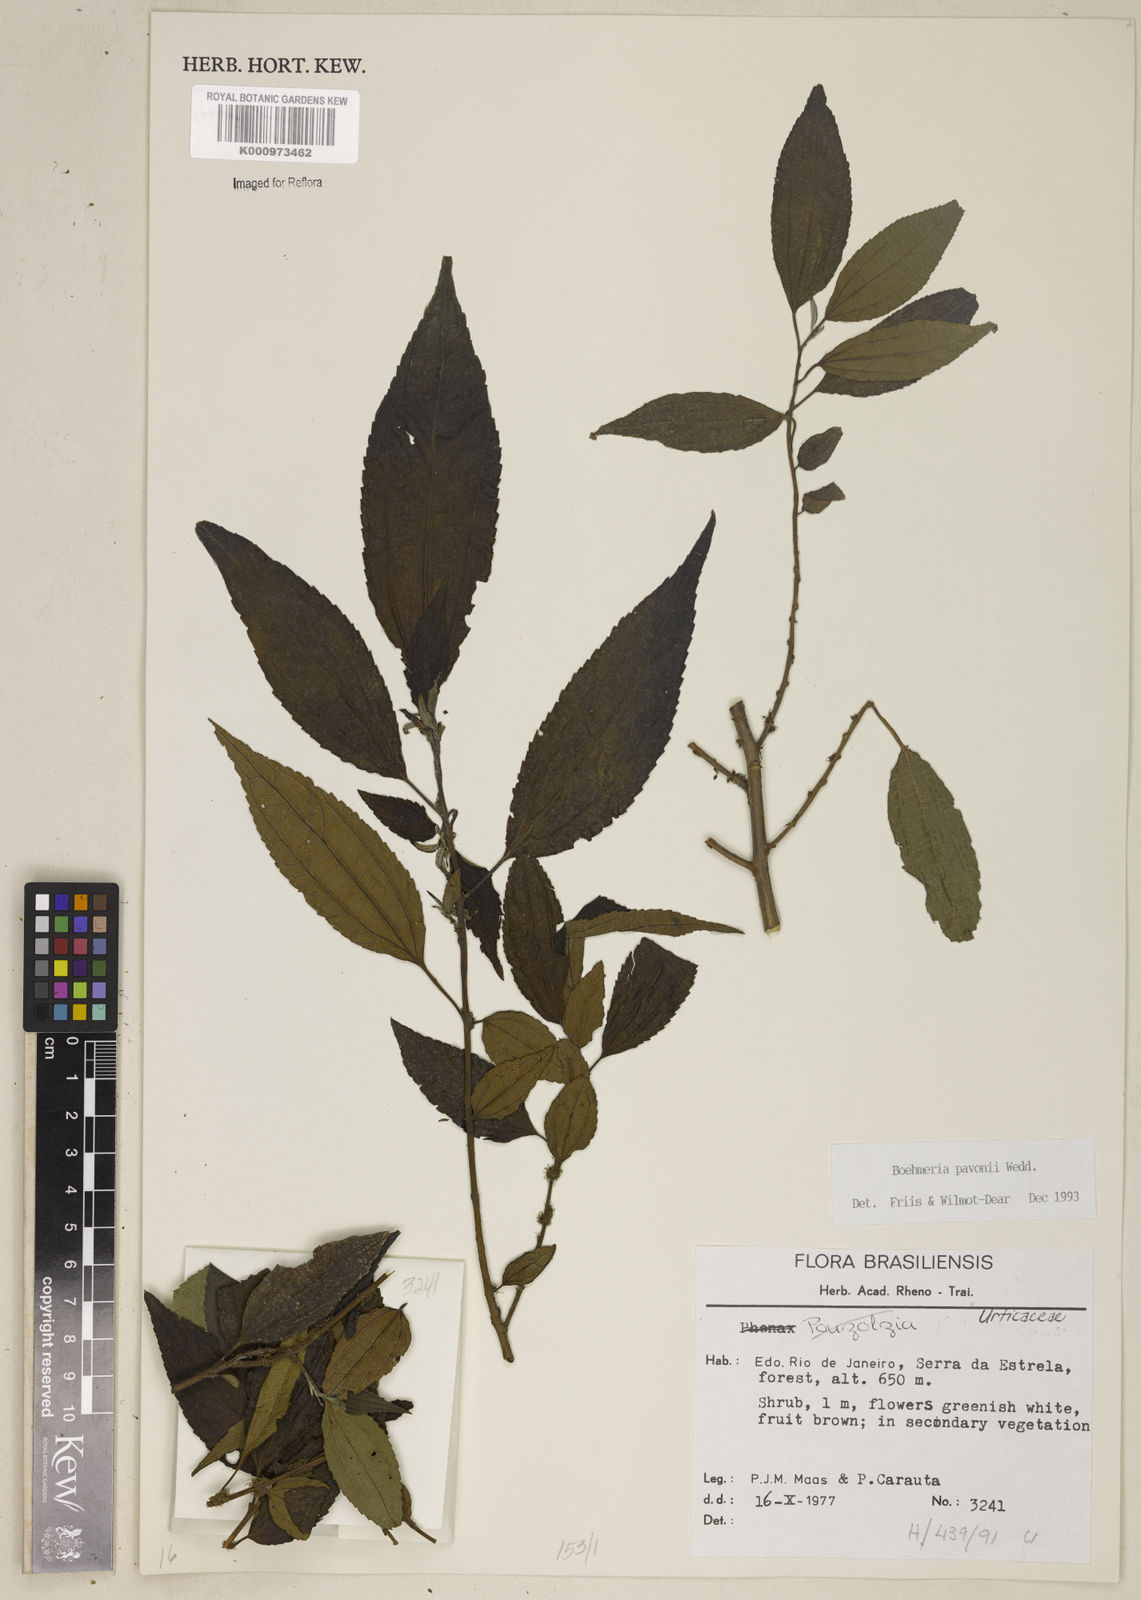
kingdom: Plantae
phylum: Tracheophyta
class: Magnoliopsida
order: Rosales
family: Urticaceae
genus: Boehmeria
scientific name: Boehmeria pavonii
